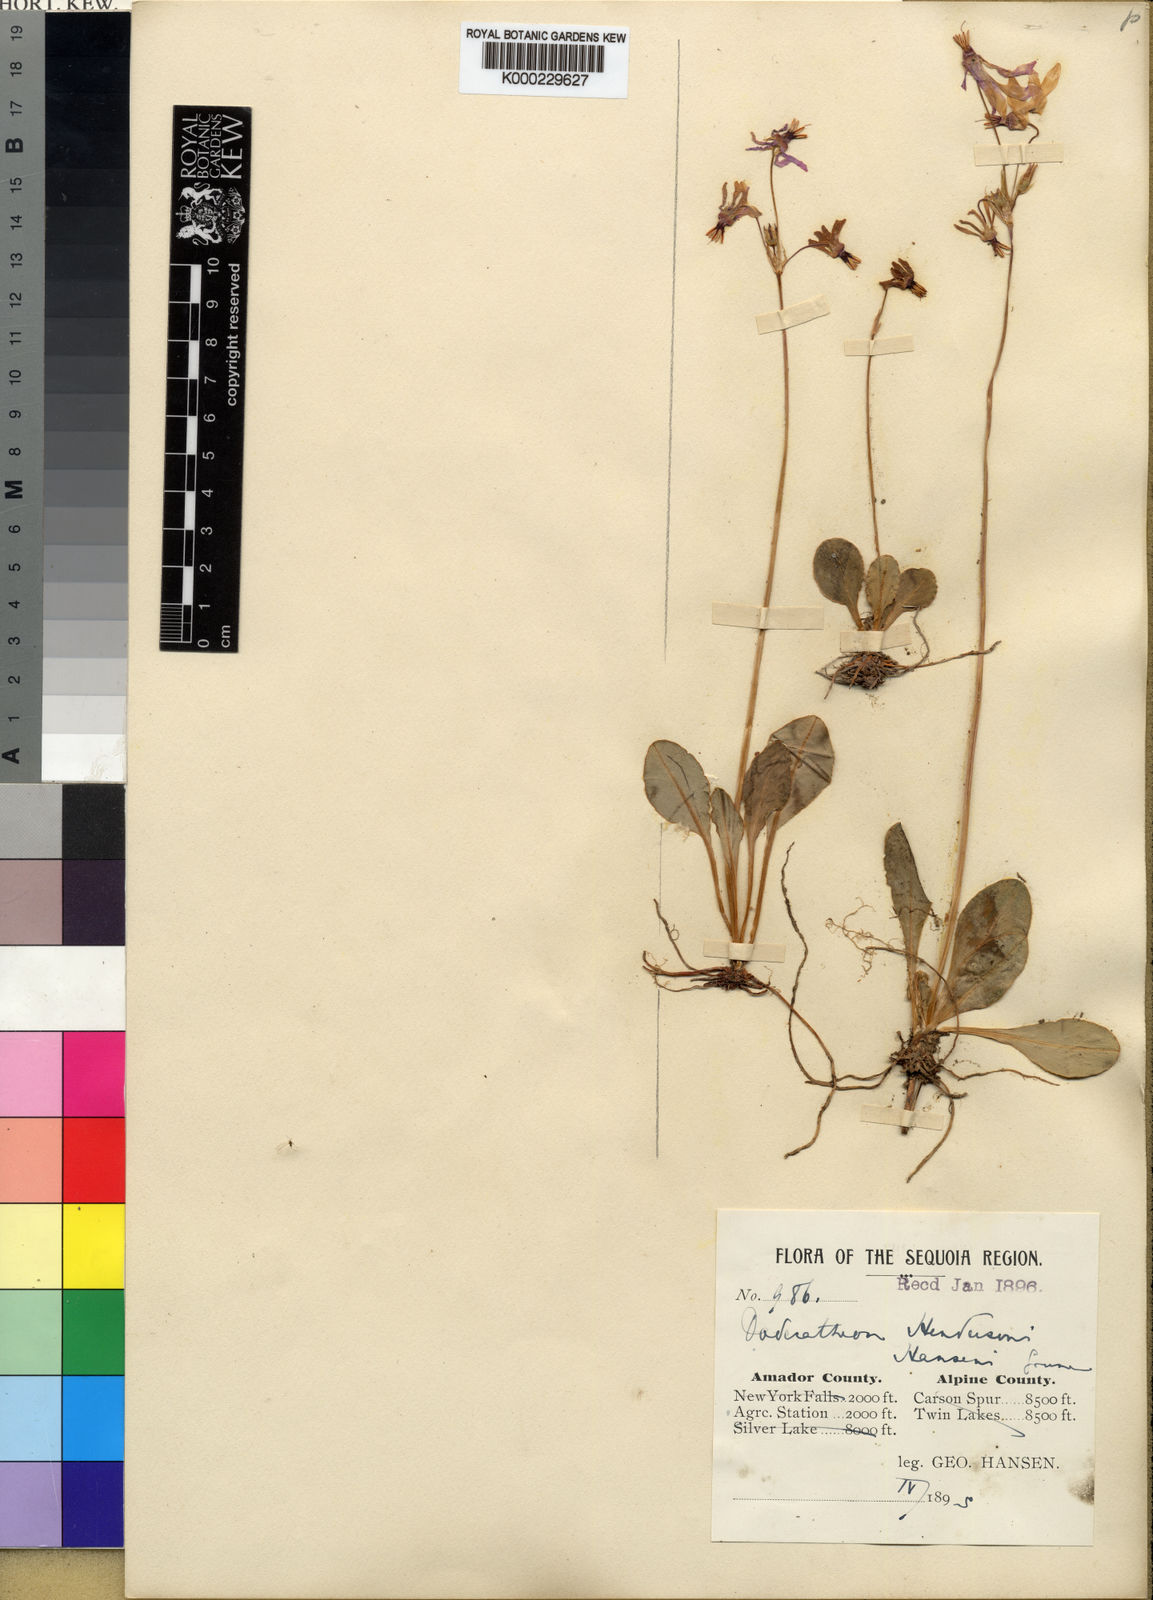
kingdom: Plantae
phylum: Tracheophyta
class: Magnoliopsida
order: Ericales
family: Primulaceae
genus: Dodecatheon
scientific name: Dodecatheon hendersonii
